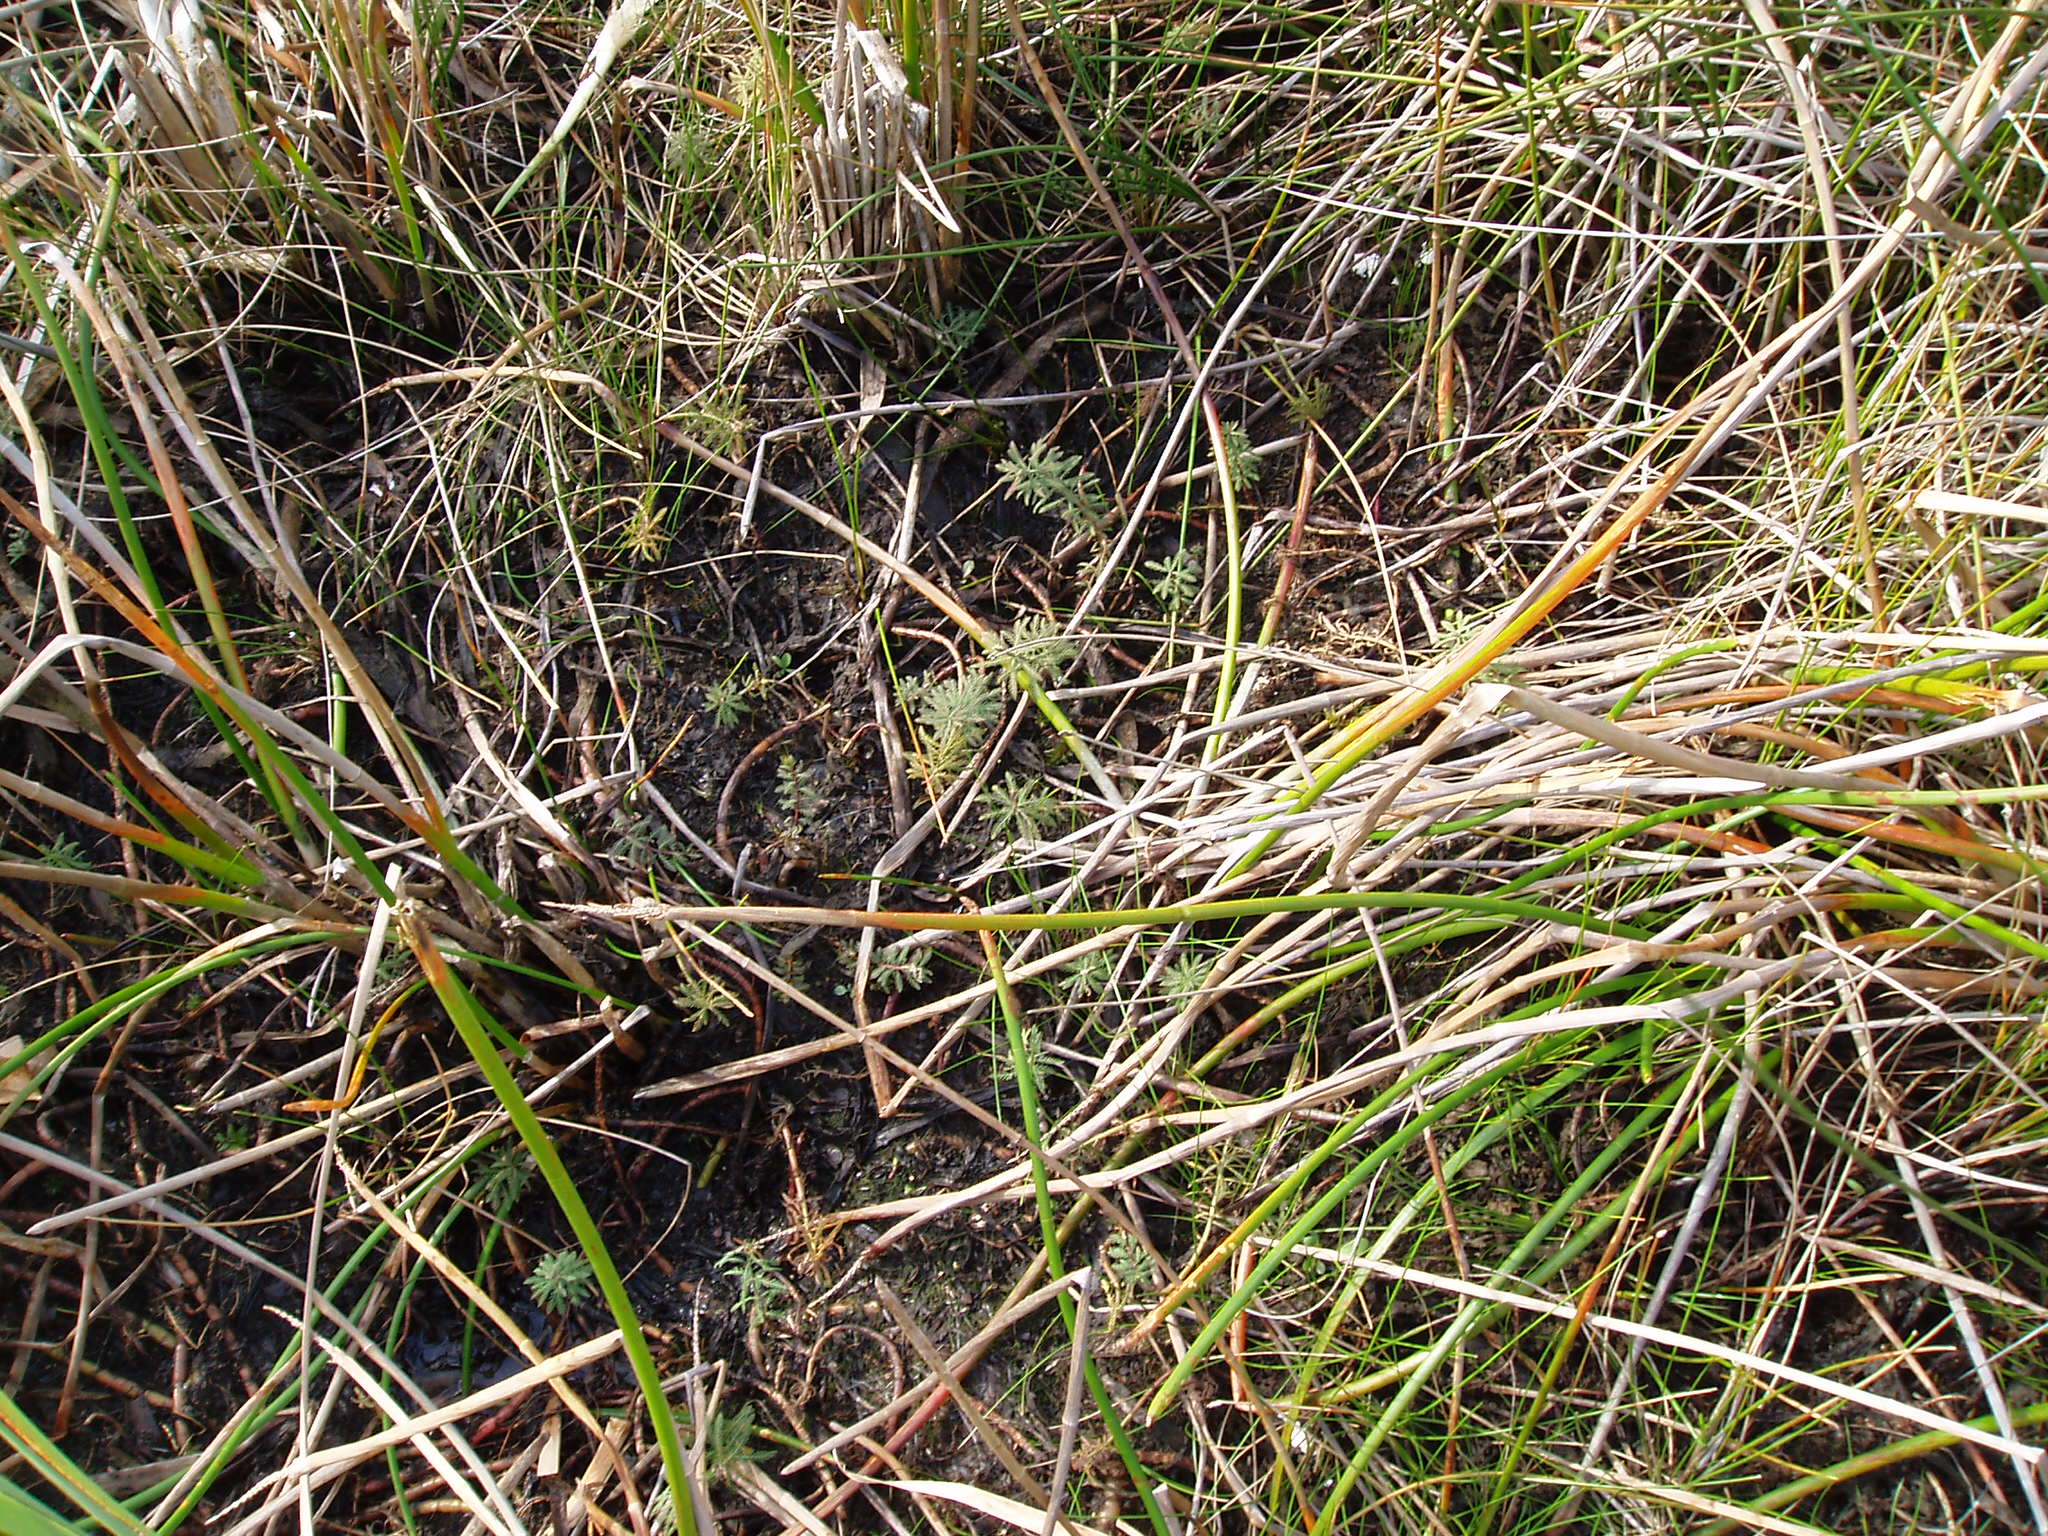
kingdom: Plantae
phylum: Tracheophyta
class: Magnoliopsida
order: Saxifragales
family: Haloragaceae
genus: Myriophyllum
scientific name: Myriophyllum robustum
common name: Stout water milfoil
